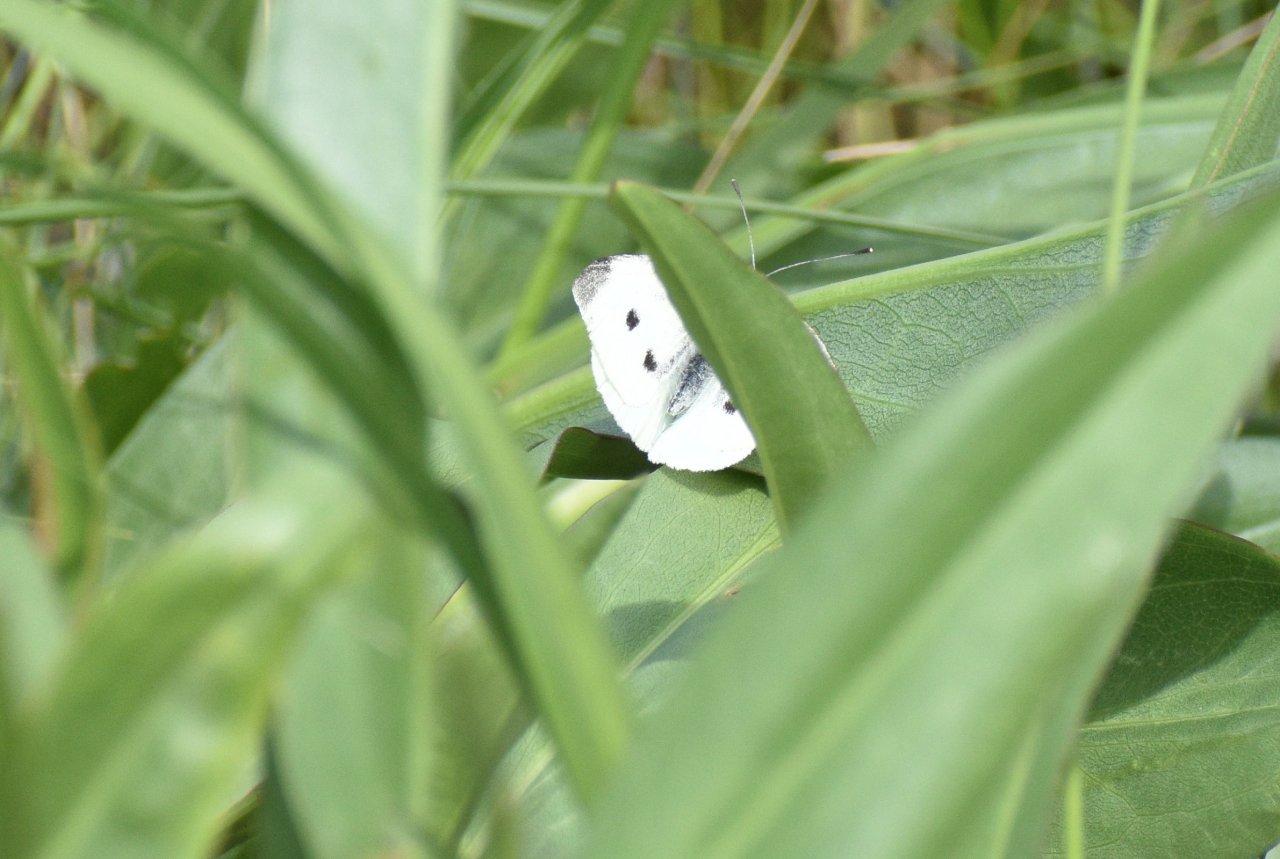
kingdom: Animalia
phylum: Arthropoda
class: Insecta
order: Lepidoptera
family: Pieridae
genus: Pieris
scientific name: Pieris rapae
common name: Cabbage White
